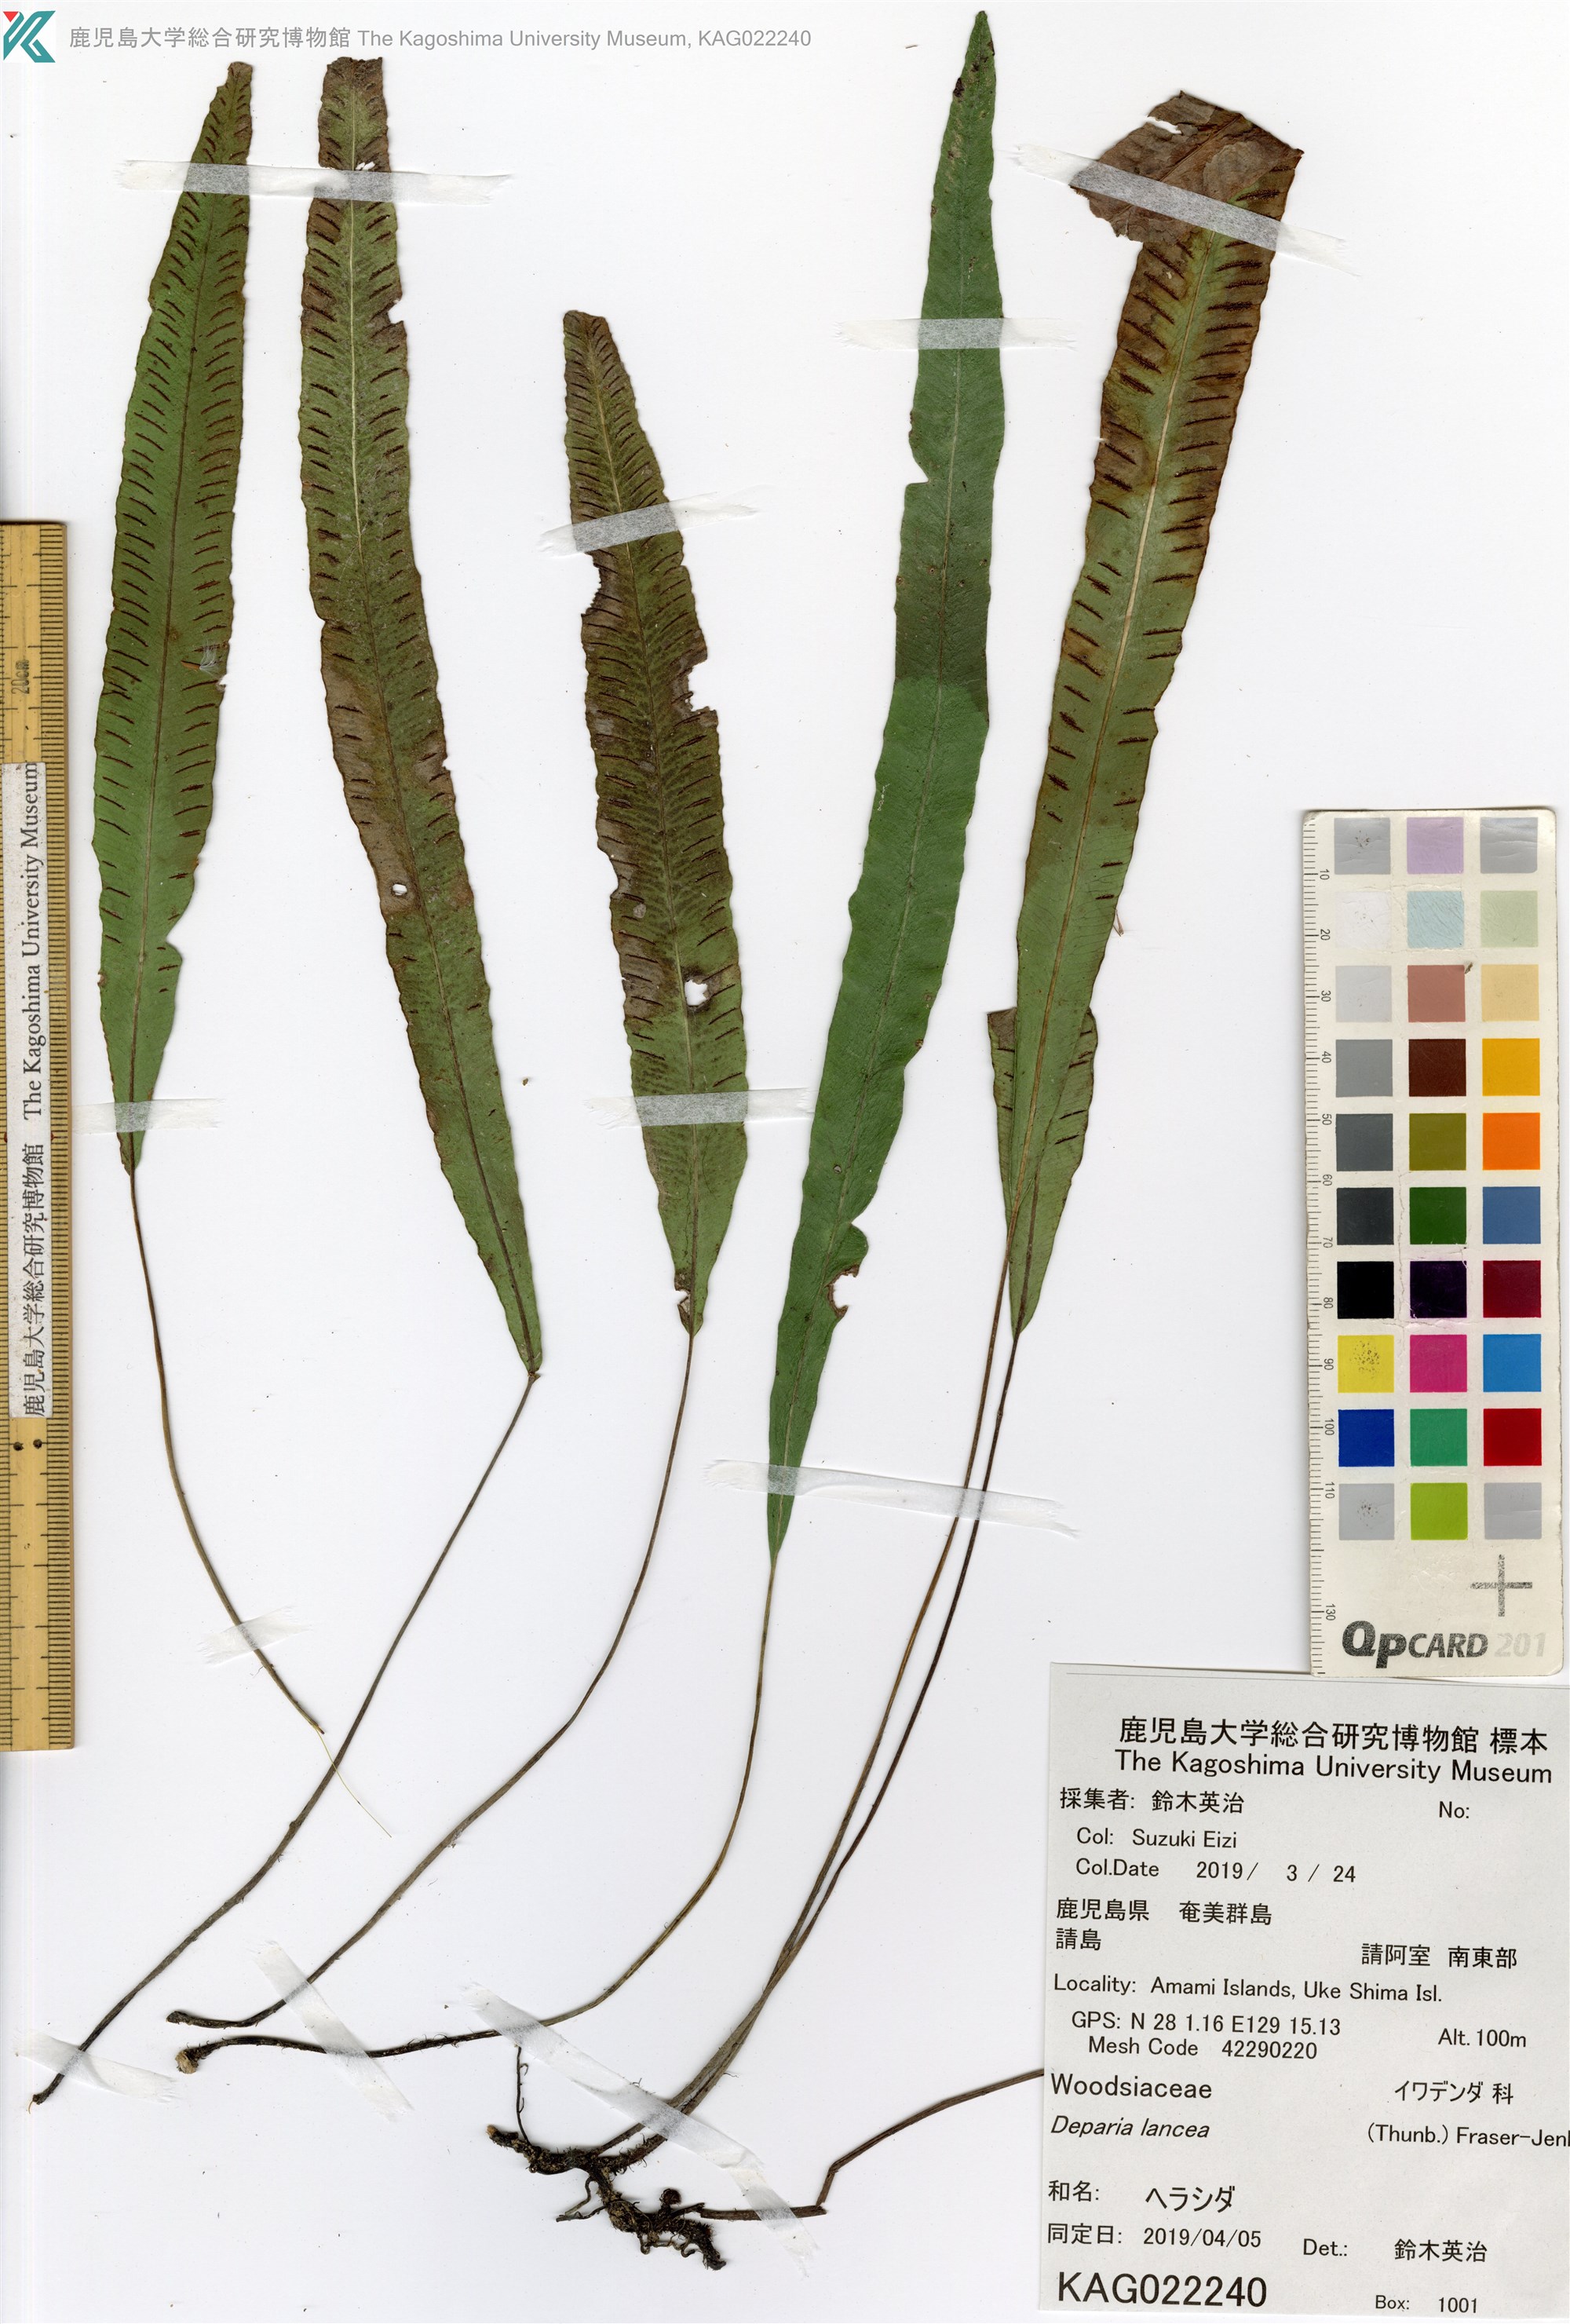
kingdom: Plantae
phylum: Tracheophyta
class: Polypodiopsida
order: Polypodiales
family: Athyriaceae
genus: Deparia
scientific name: Deparia lancea
